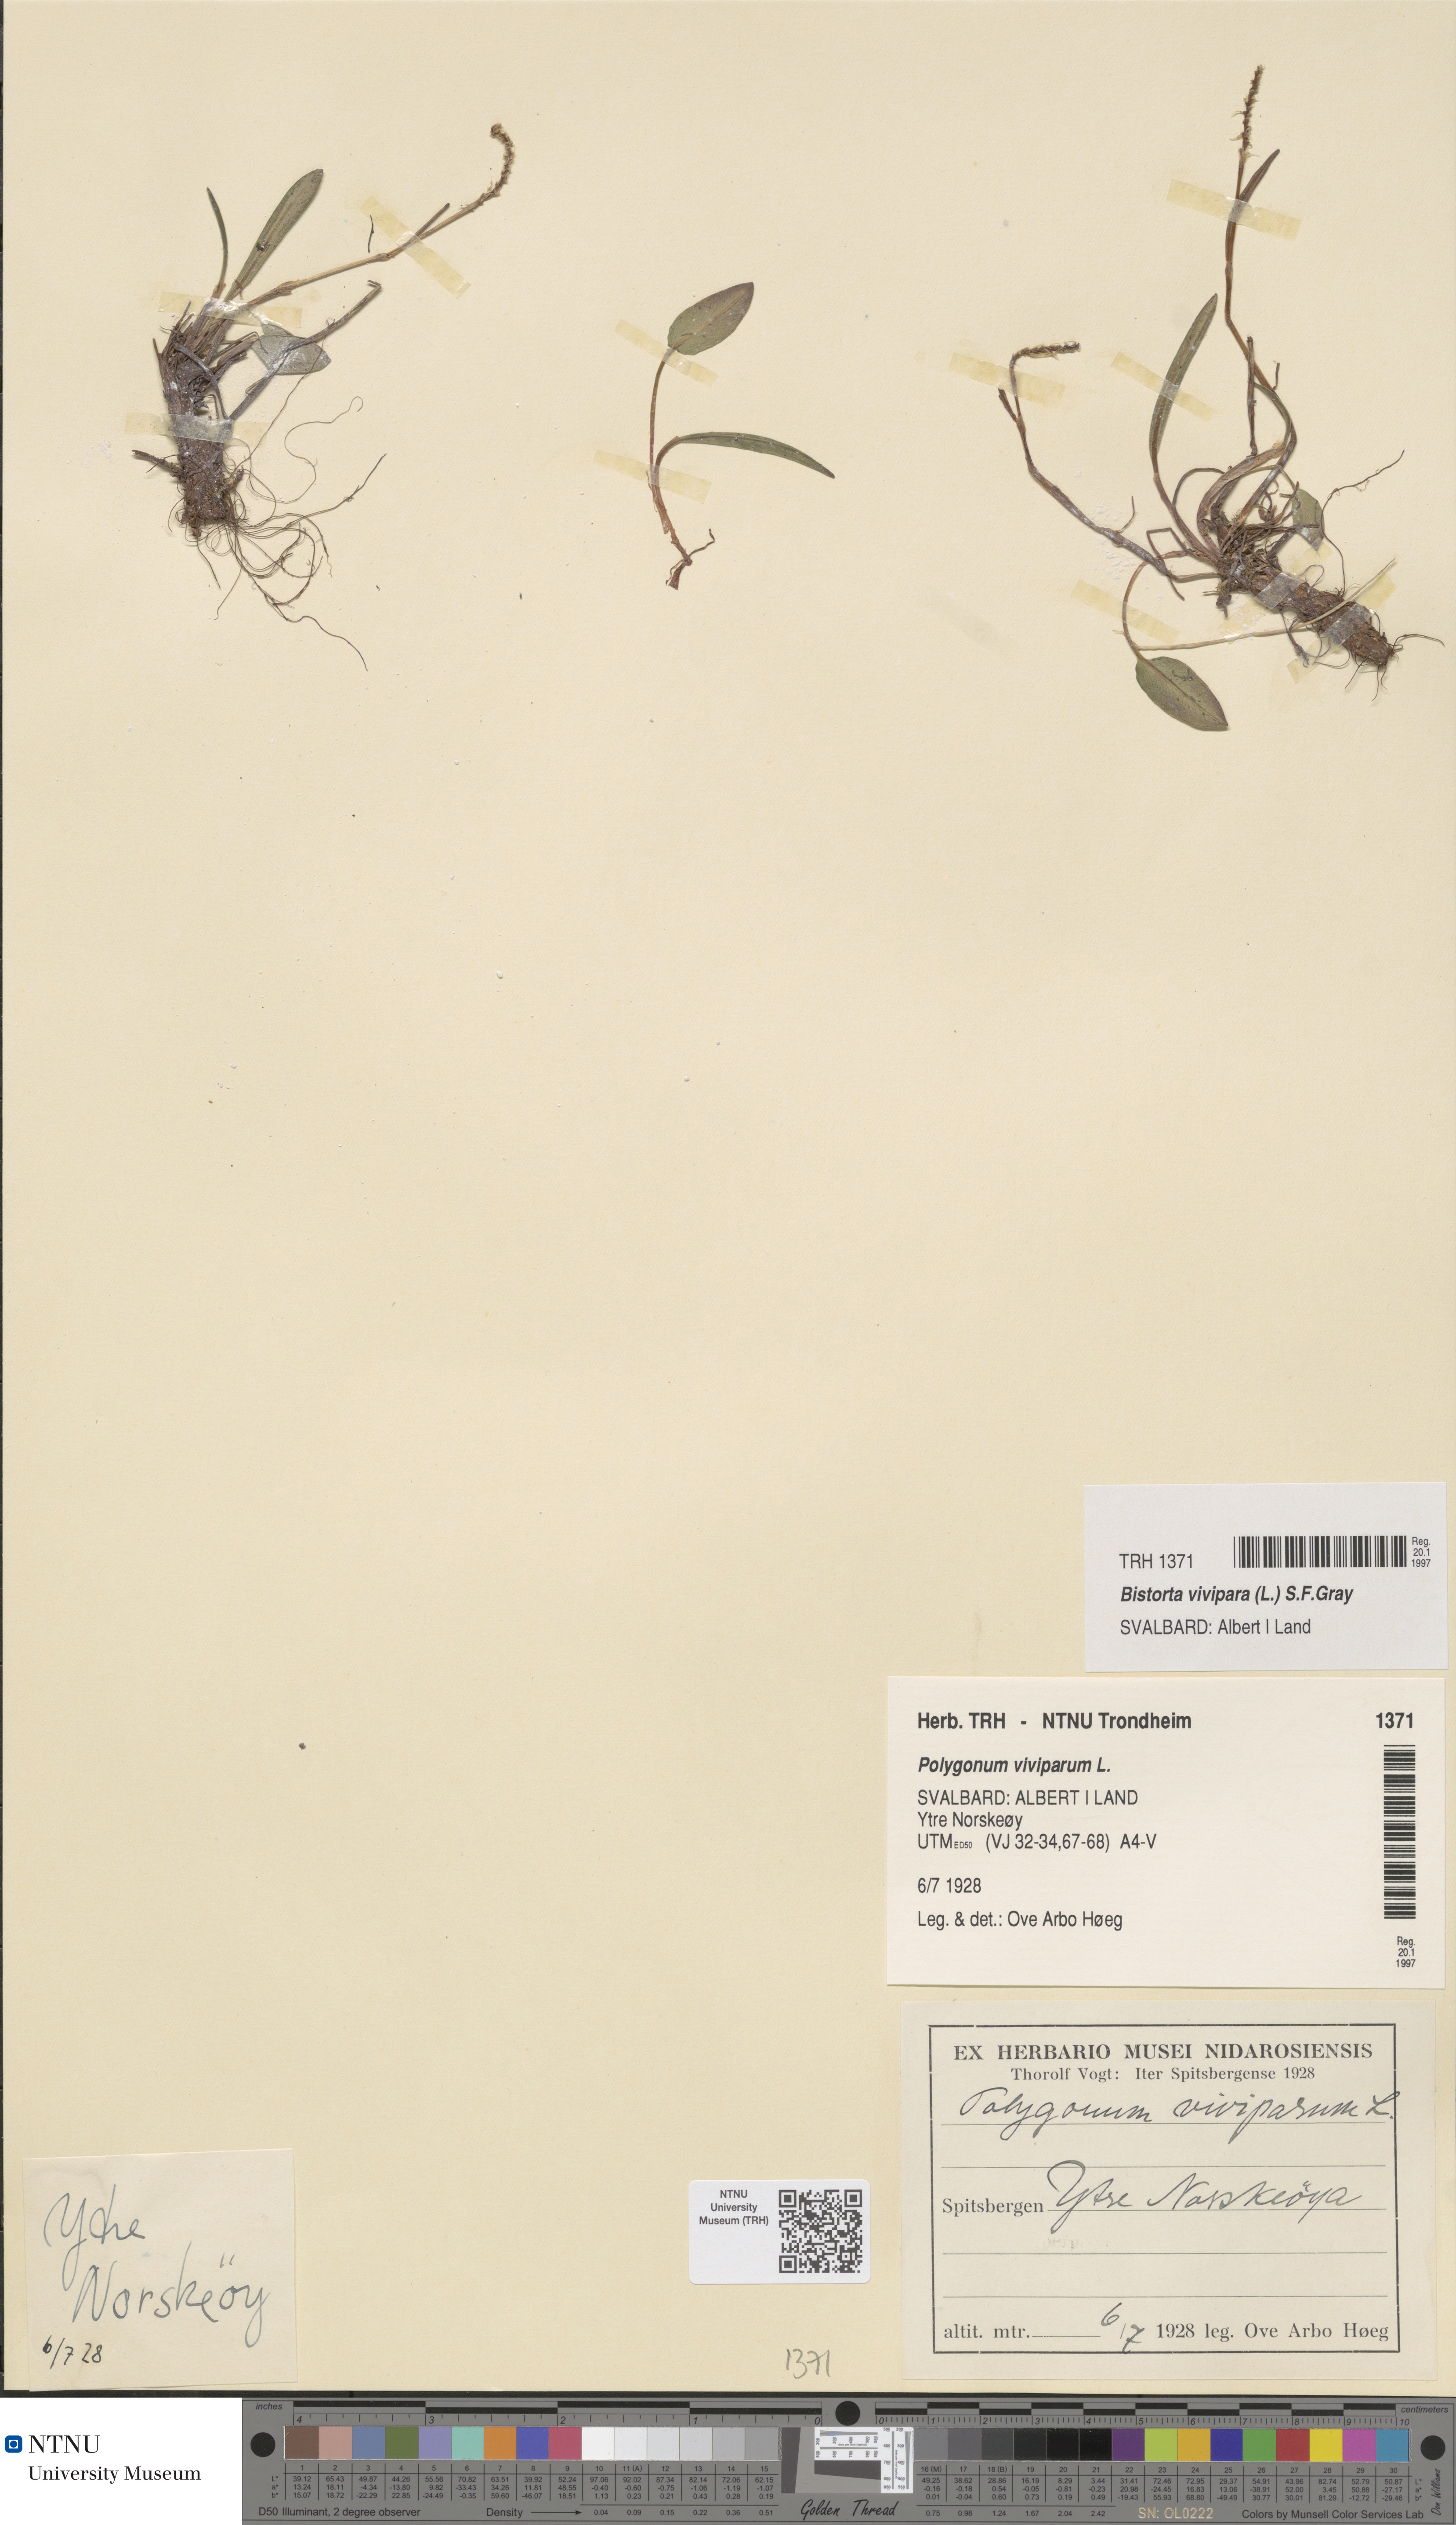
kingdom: Plantae
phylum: Tracheophyta
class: Magnoliopsida
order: Caryophyllales
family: Polygonaceae
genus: Bistorta
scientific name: Bistorta vivipara
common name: Alpine bistort
